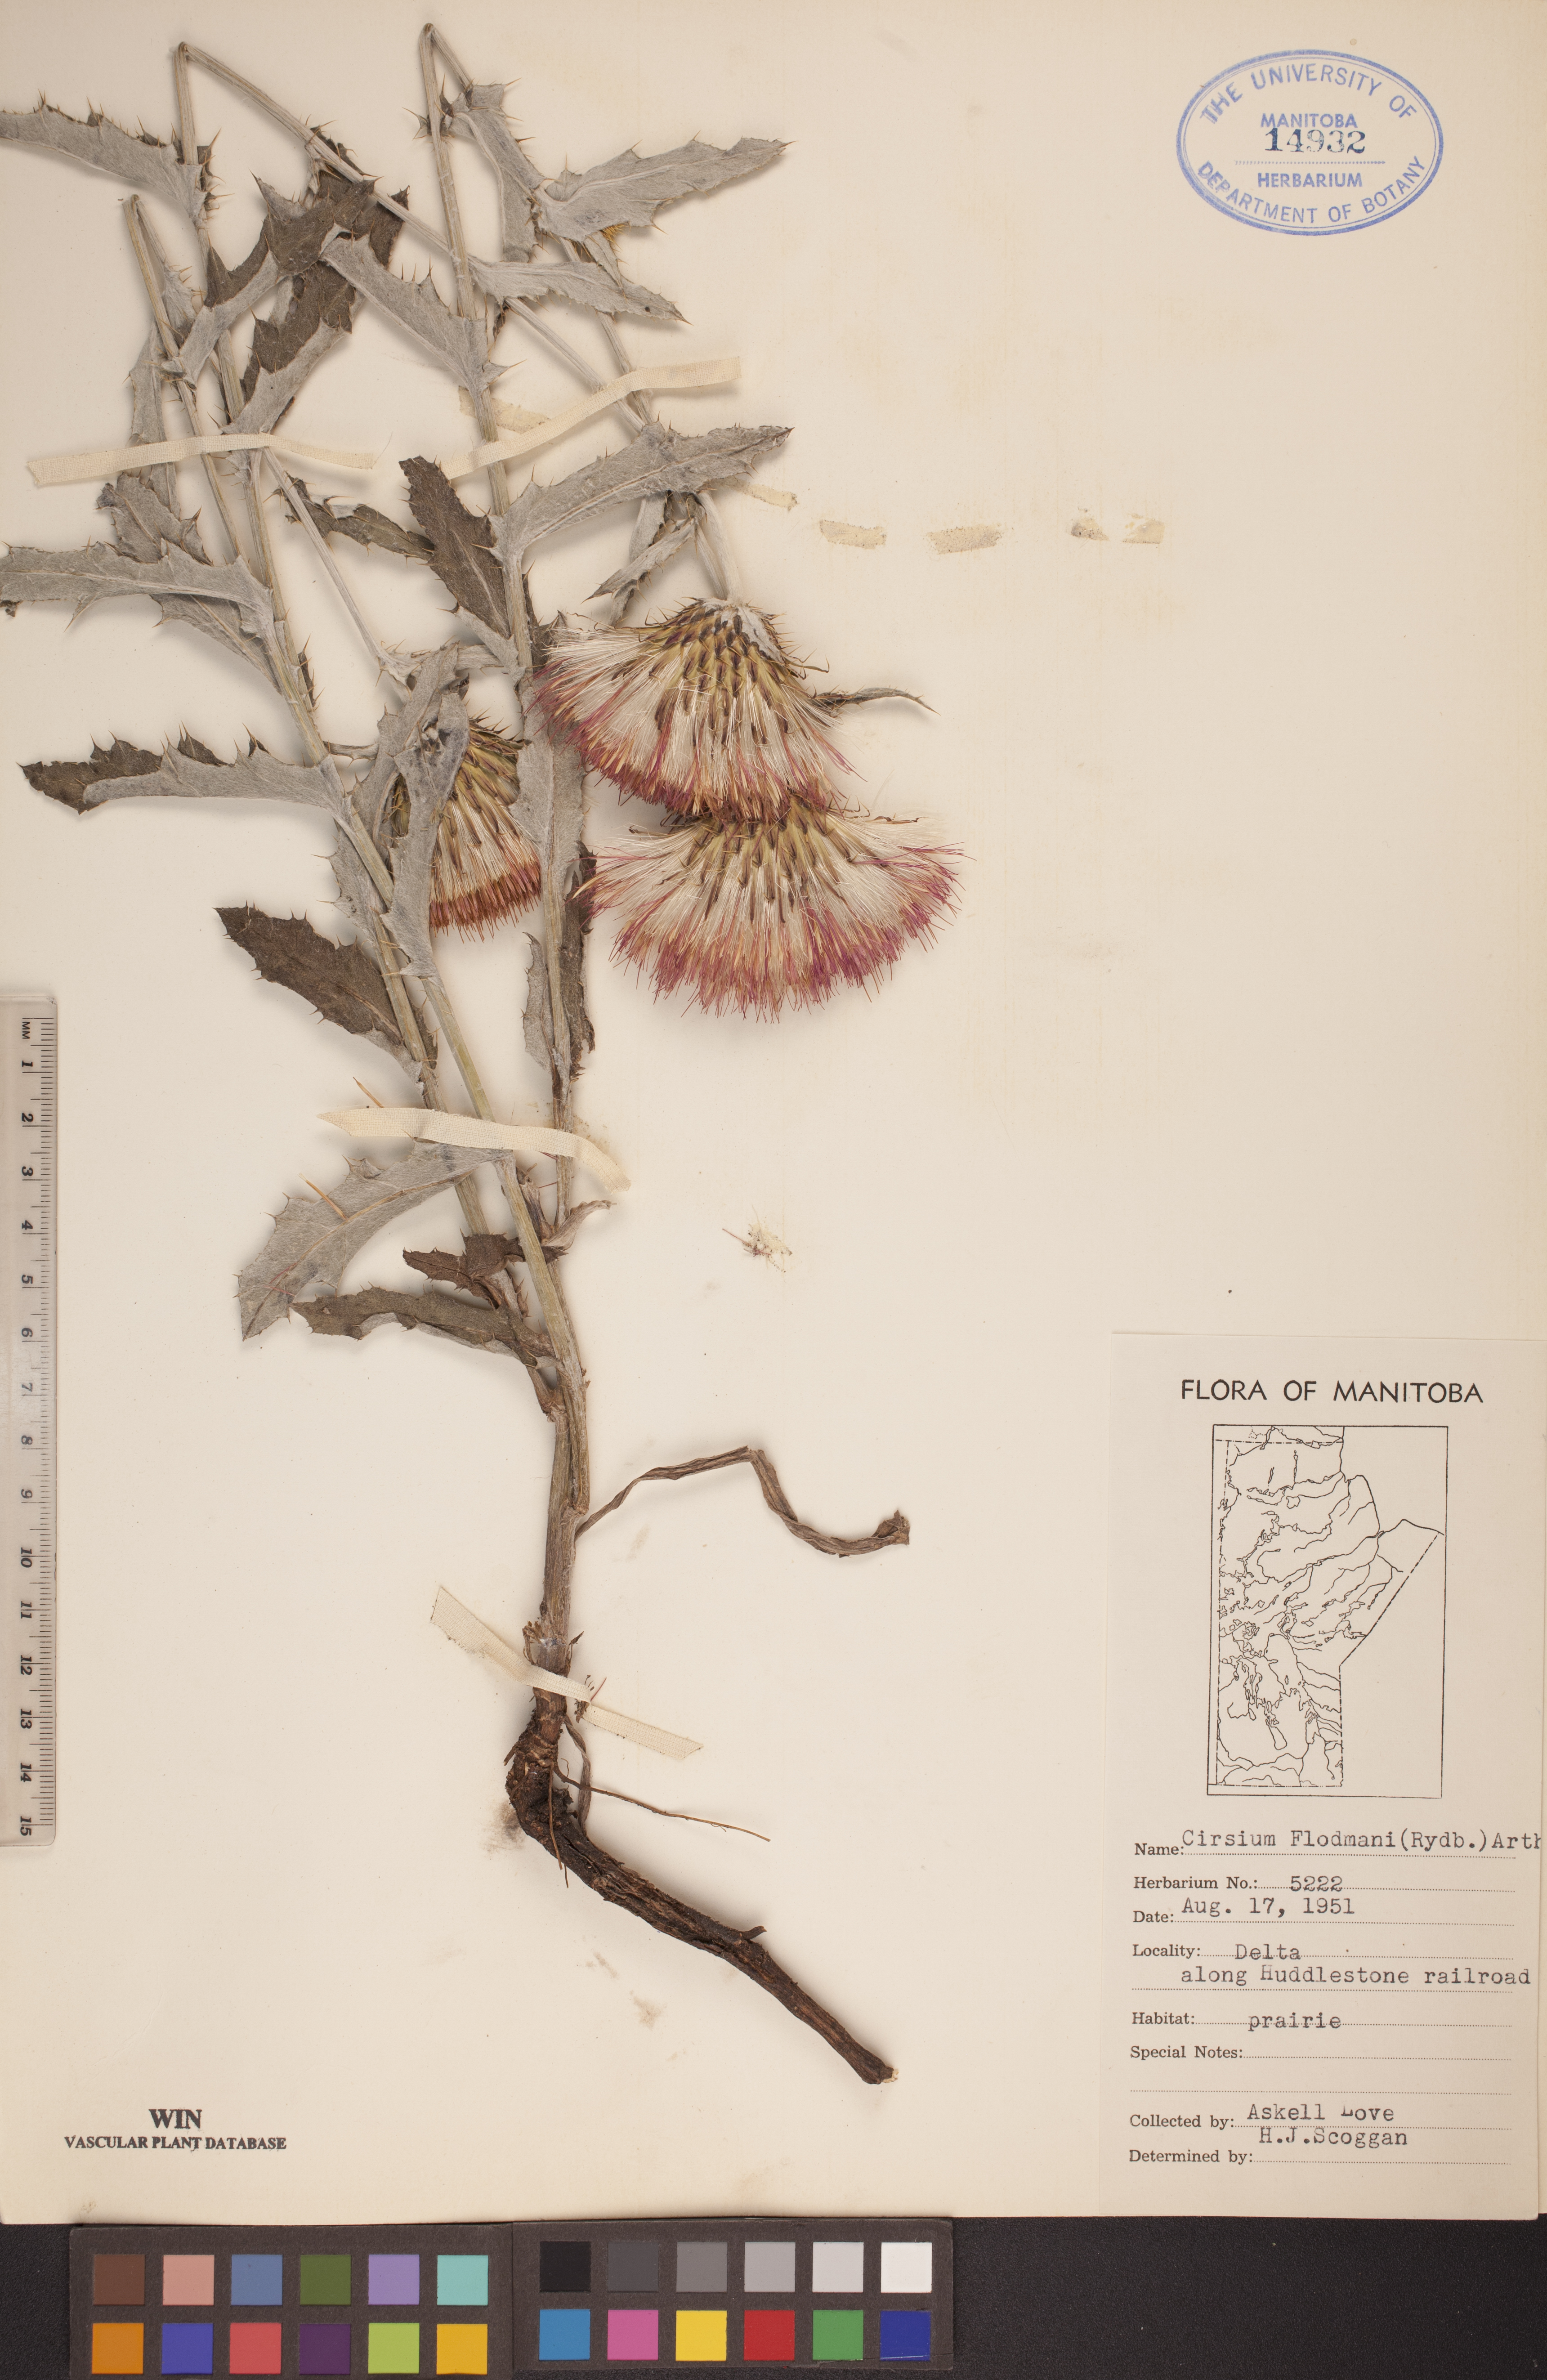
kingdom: Plantae
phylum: Tracheophyta
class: Magnoliopsida
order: Asterales
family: Asteraceae
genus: Cirsium
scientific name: Cirsium flodmanii
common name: Flodman's thistle
